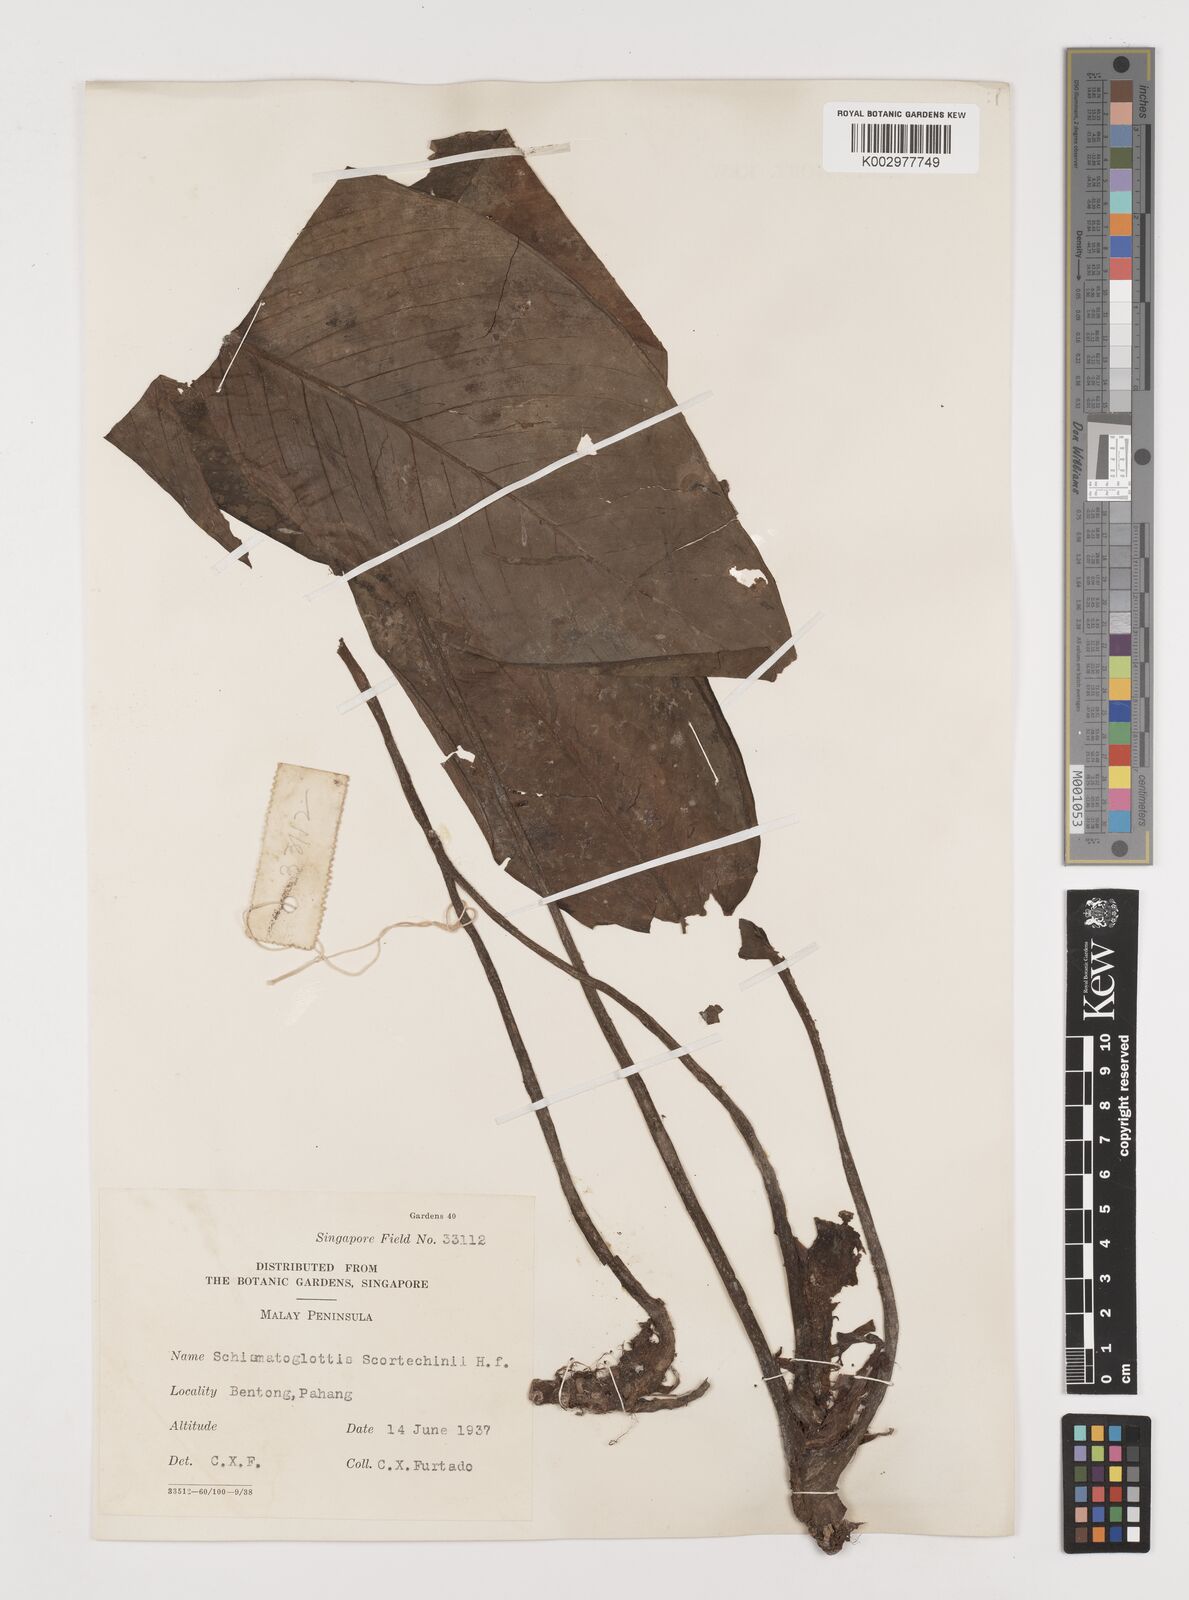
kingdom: Plantae
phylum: Tracheophyta
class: Liliopsida
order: Alismatales
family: Araceae
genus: Schismatoglottis
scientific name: Schismatoglottis scortechinii
